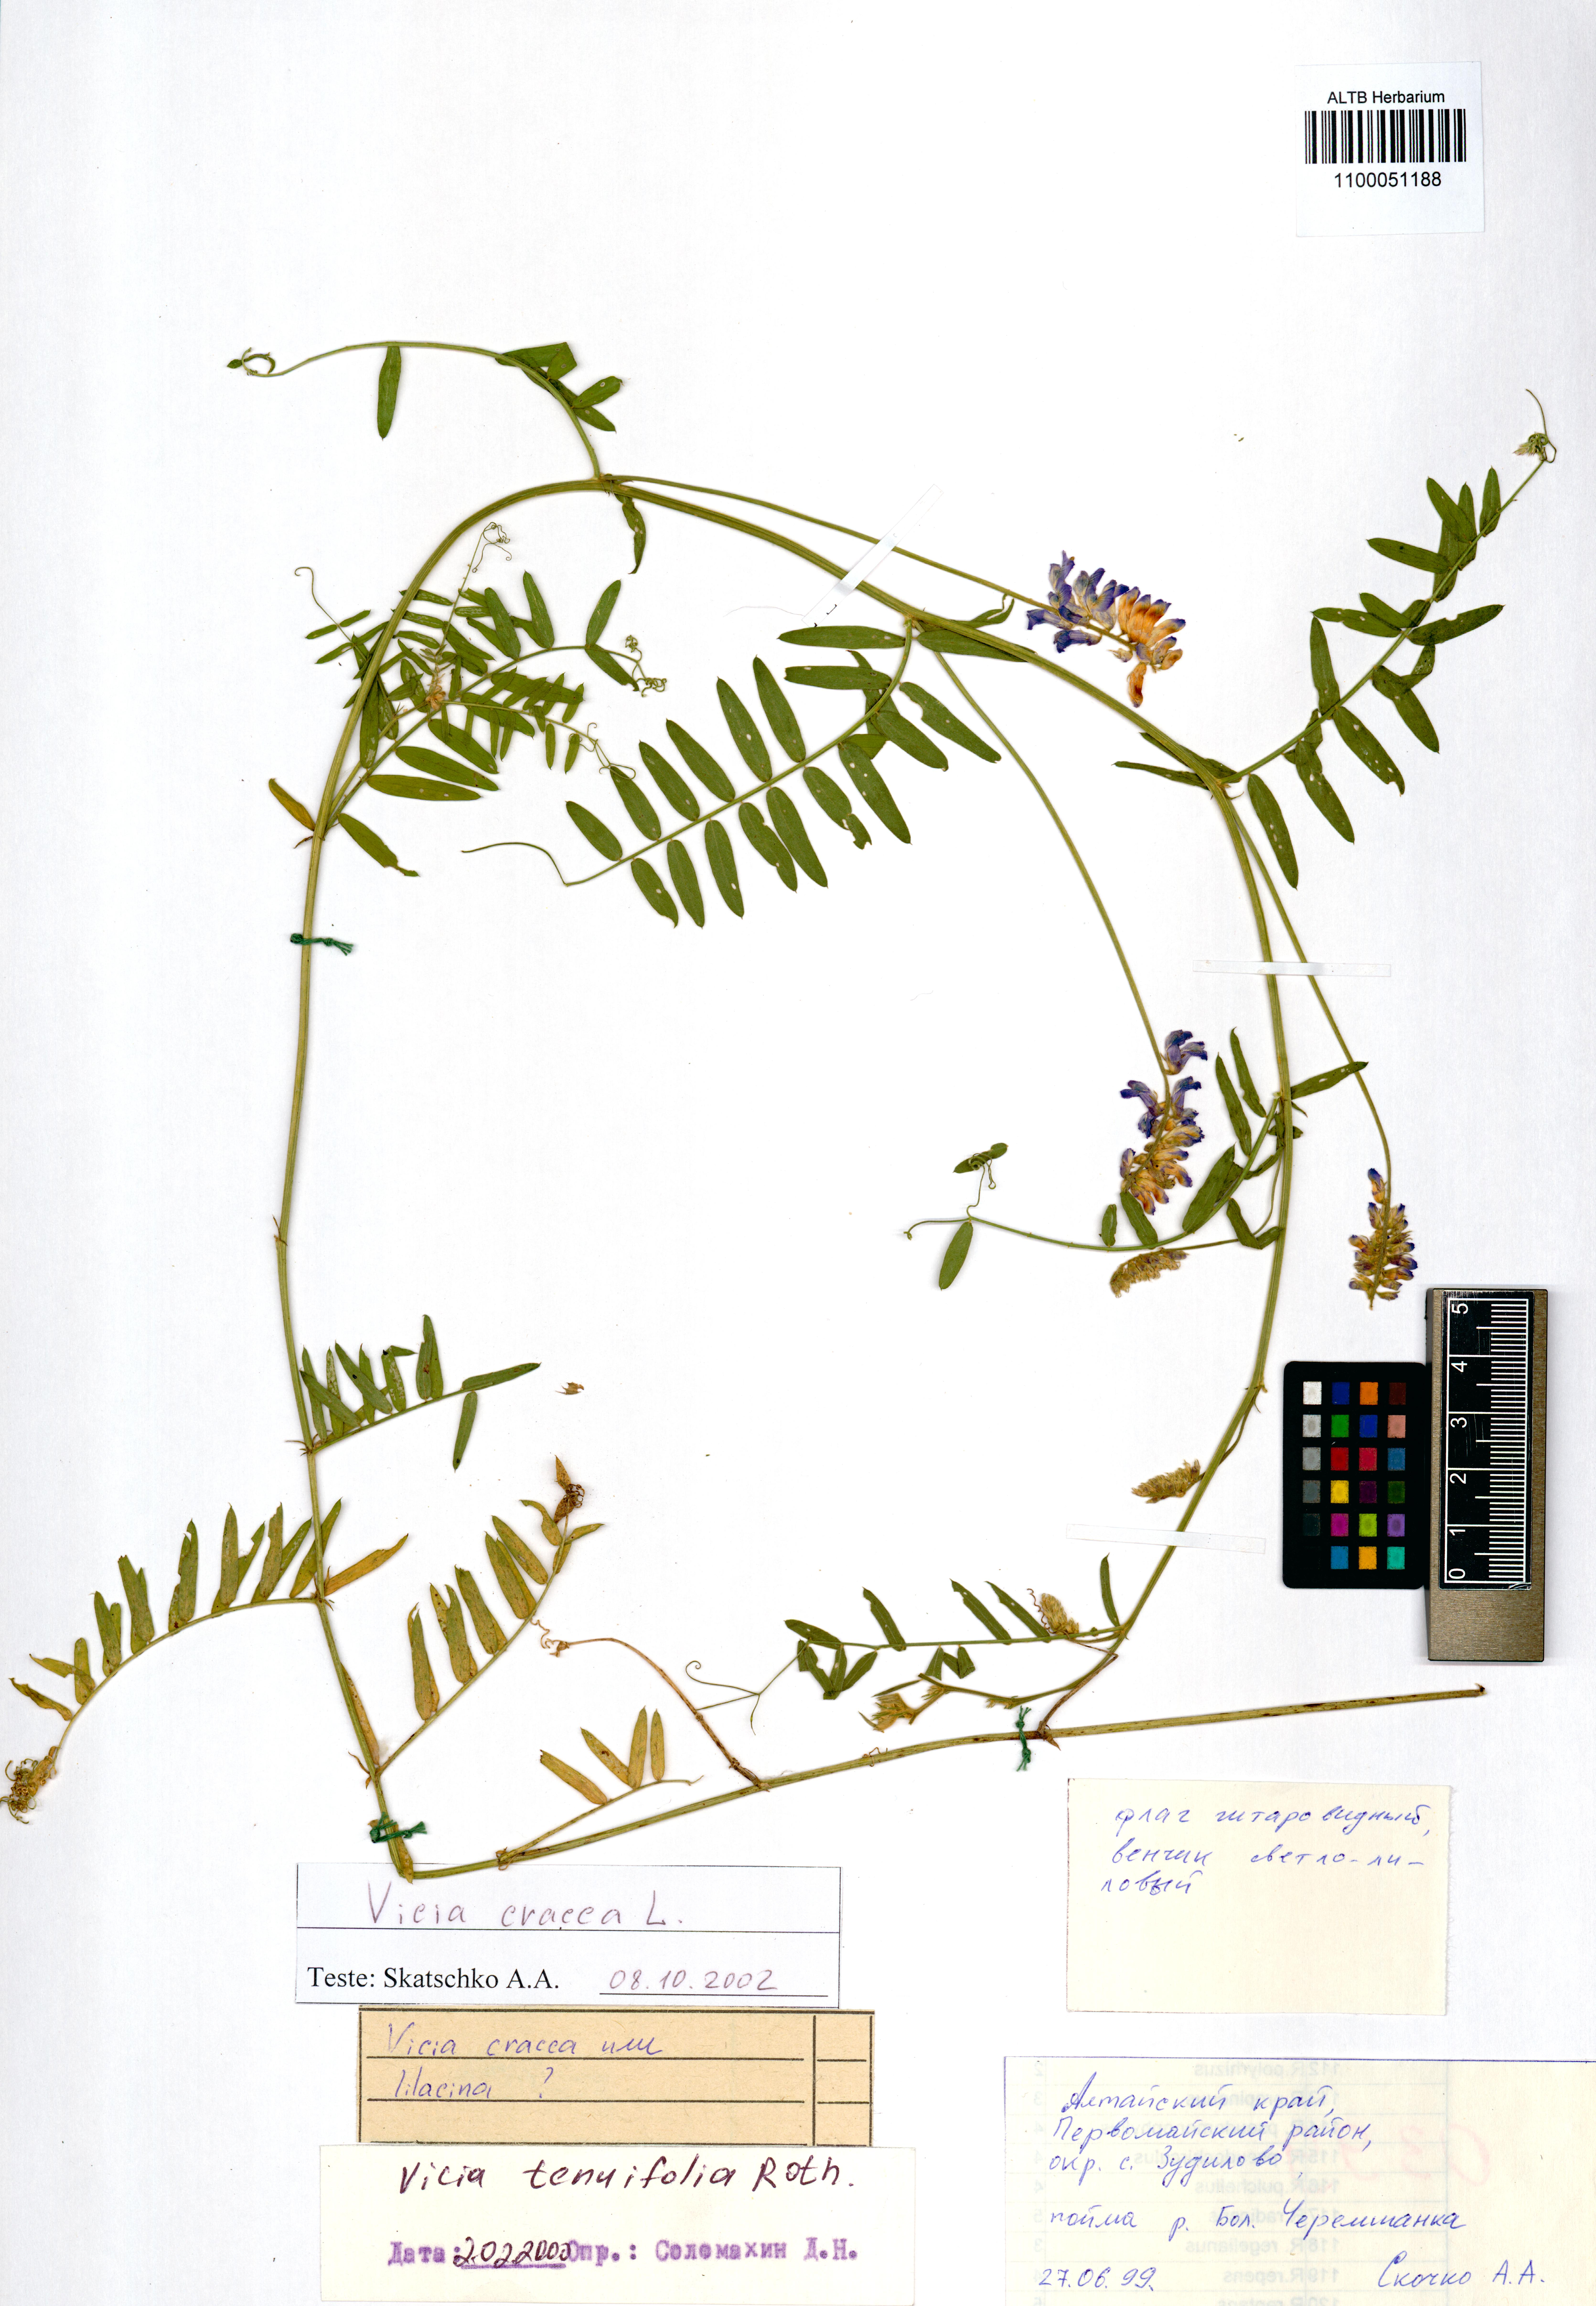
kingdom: Plantae
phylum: Tracheophyta
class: Magnoliopsida
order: Fabales
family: Fabaceae
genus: Vicia
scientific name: Vicia cracca
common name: Bird vetch
